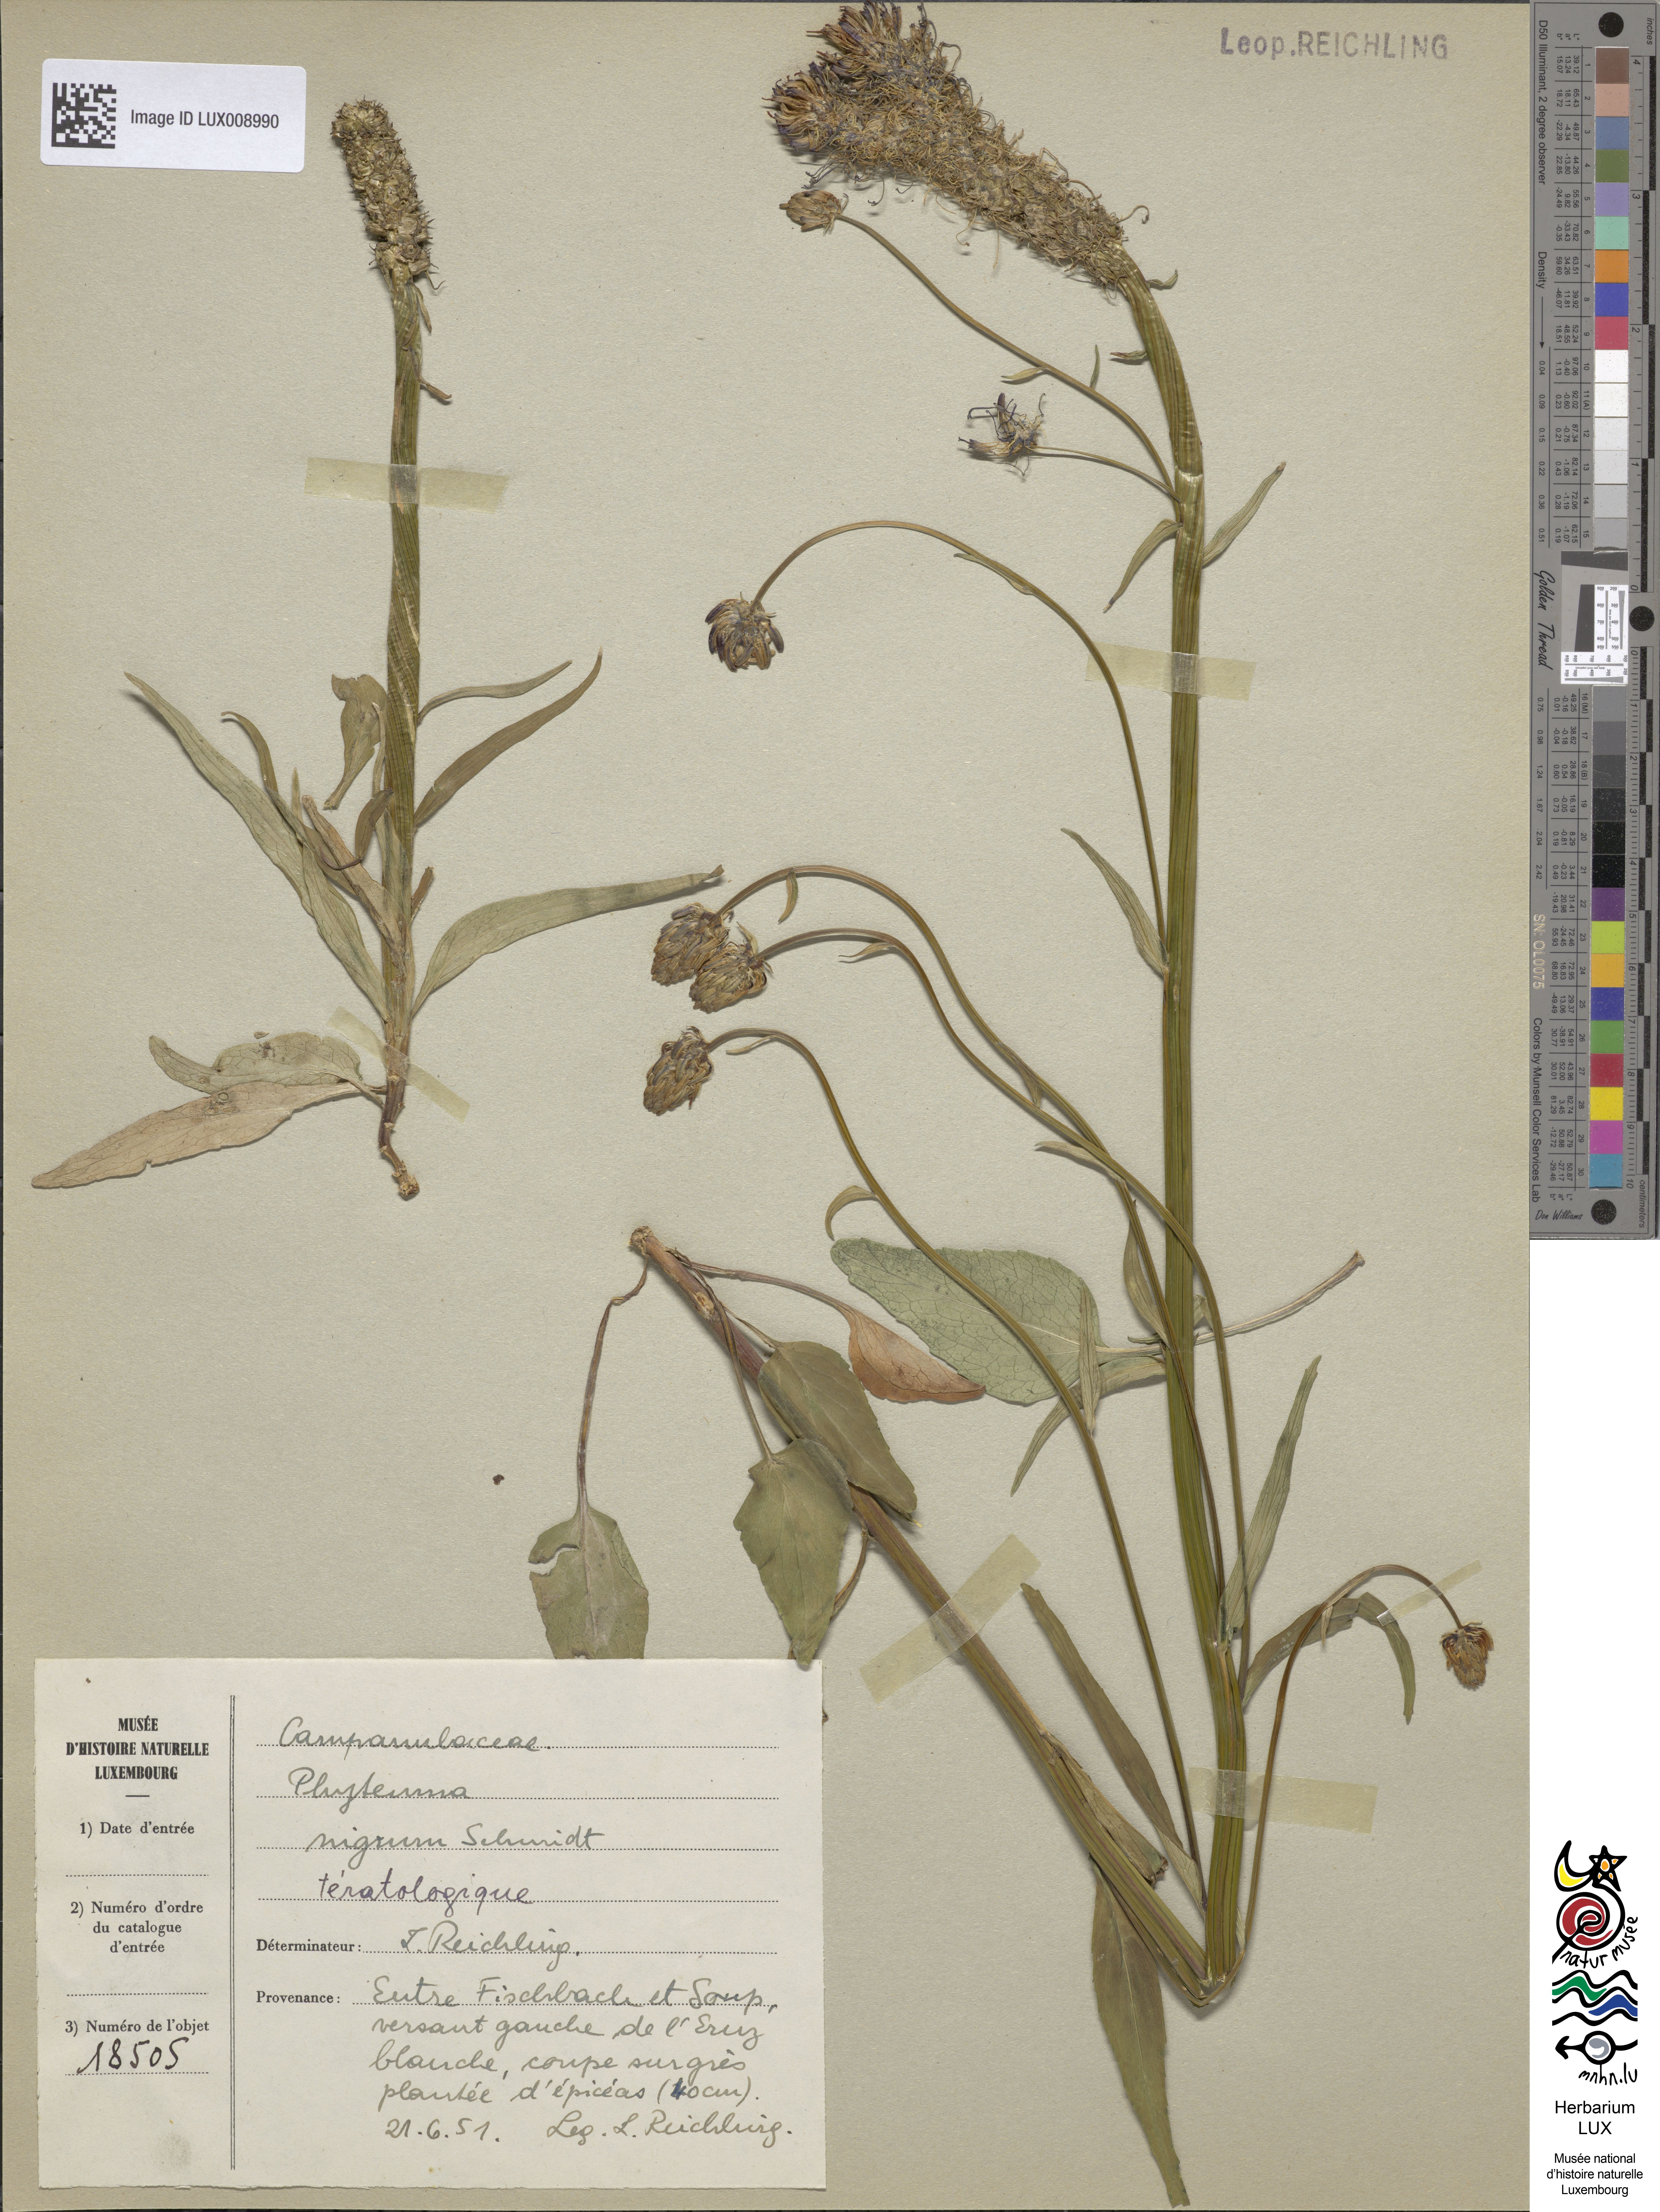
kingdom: Plantae
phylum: Tracheophyta
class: Magnoliopsida
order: Asterales
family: Campanulaceae
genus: Phyteuma
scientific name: Phyteuma nigrum
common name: Black rampion
